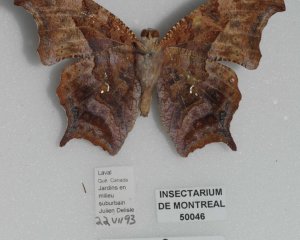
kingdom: Animalia
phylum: Arthropoda
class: Insecta
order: Lepidoptera
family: Nymphalidae
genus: Polygonia
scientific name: Polygonia interrogationis
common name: Question Mark
